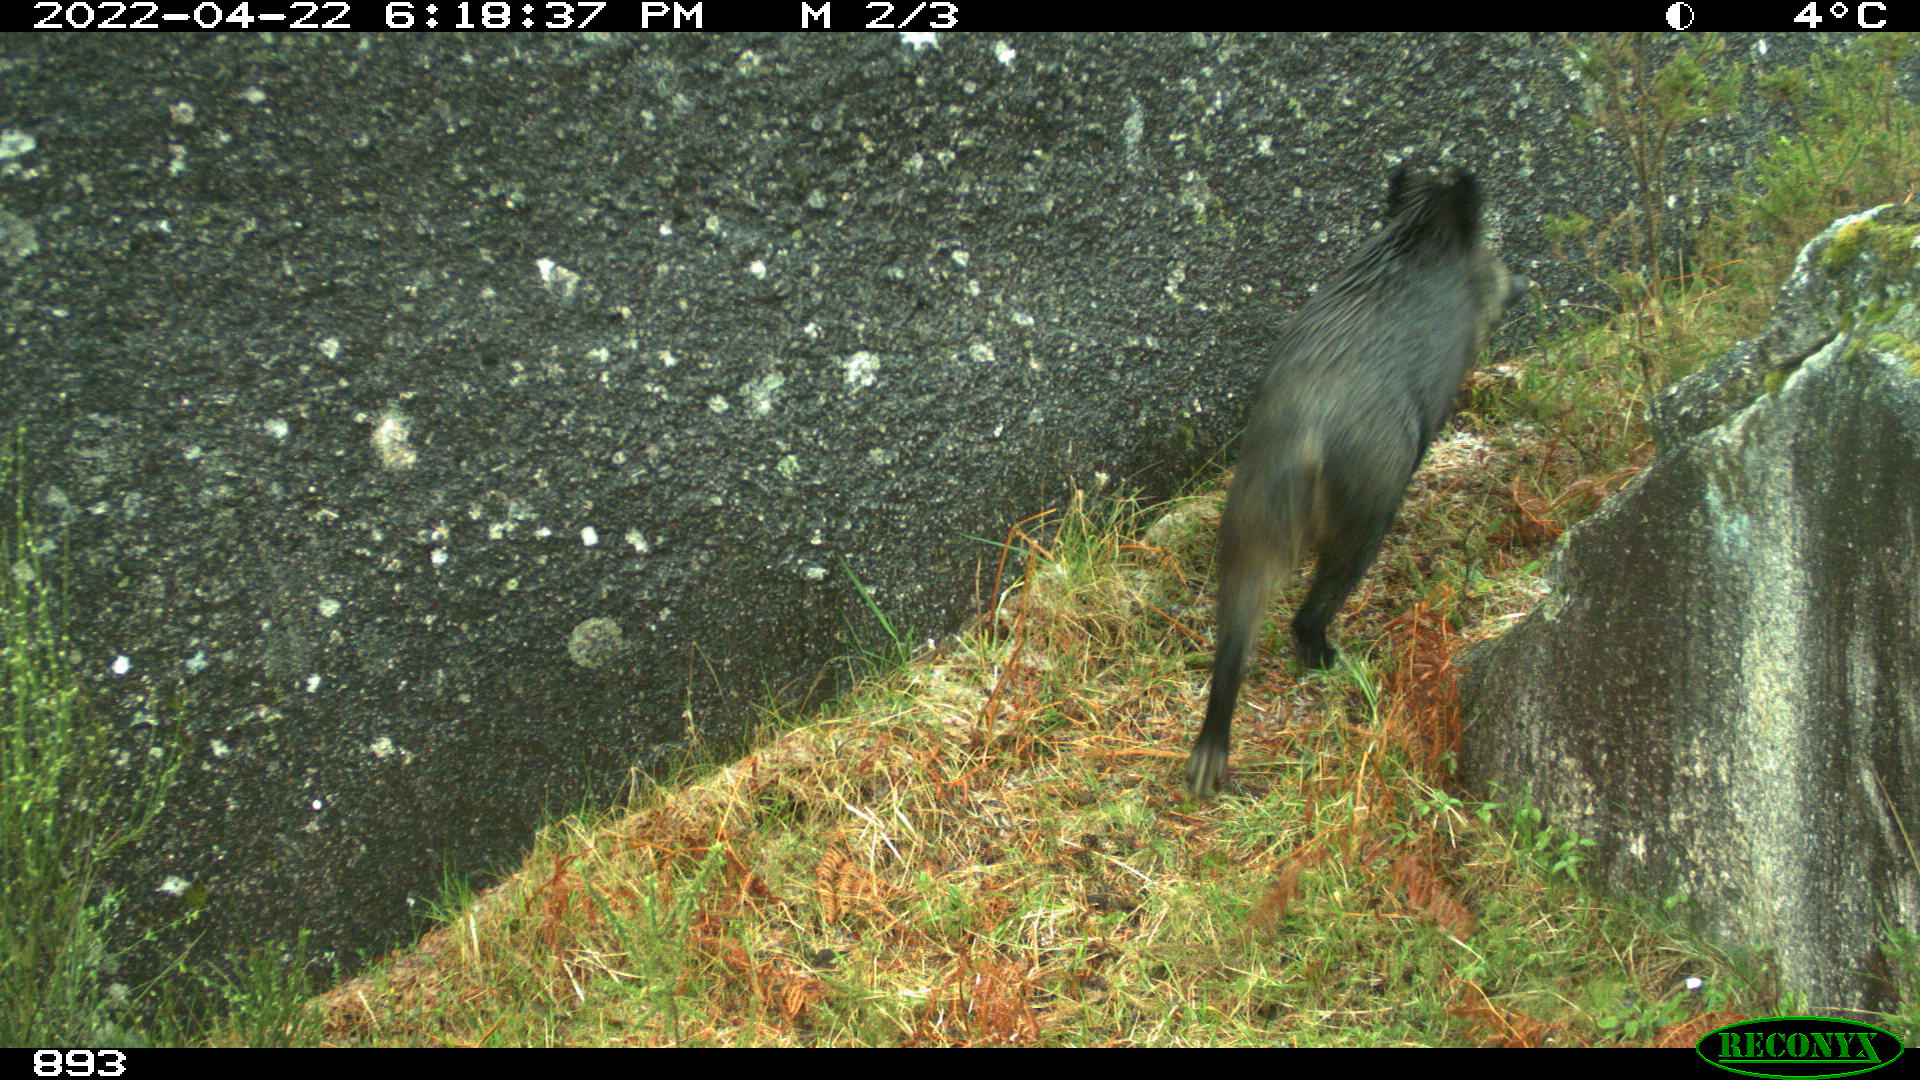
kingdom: Animalia
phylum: Chordata
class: Mammalia
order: Artiodactyla
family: Suidae
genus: Sus
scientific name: Sus scrofa
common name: Wild boar
